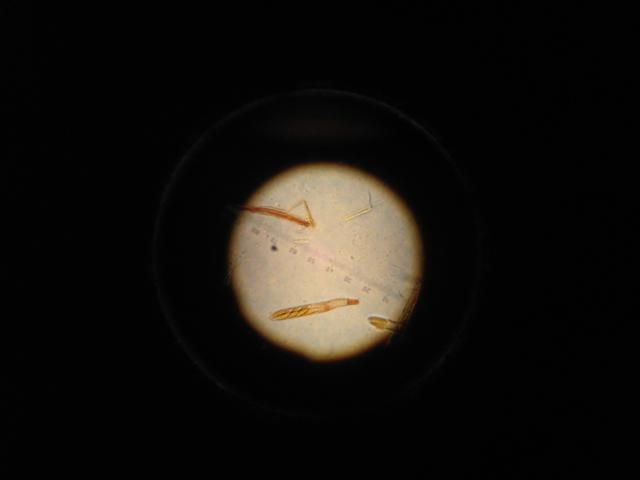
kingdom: Fungi
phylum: Ascomycota
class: Leotiomycetes
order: Helotiales
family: Tricladiaceae
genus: Cudoniella
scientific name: Cudoniella acicularis
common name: ege-dyndskive
